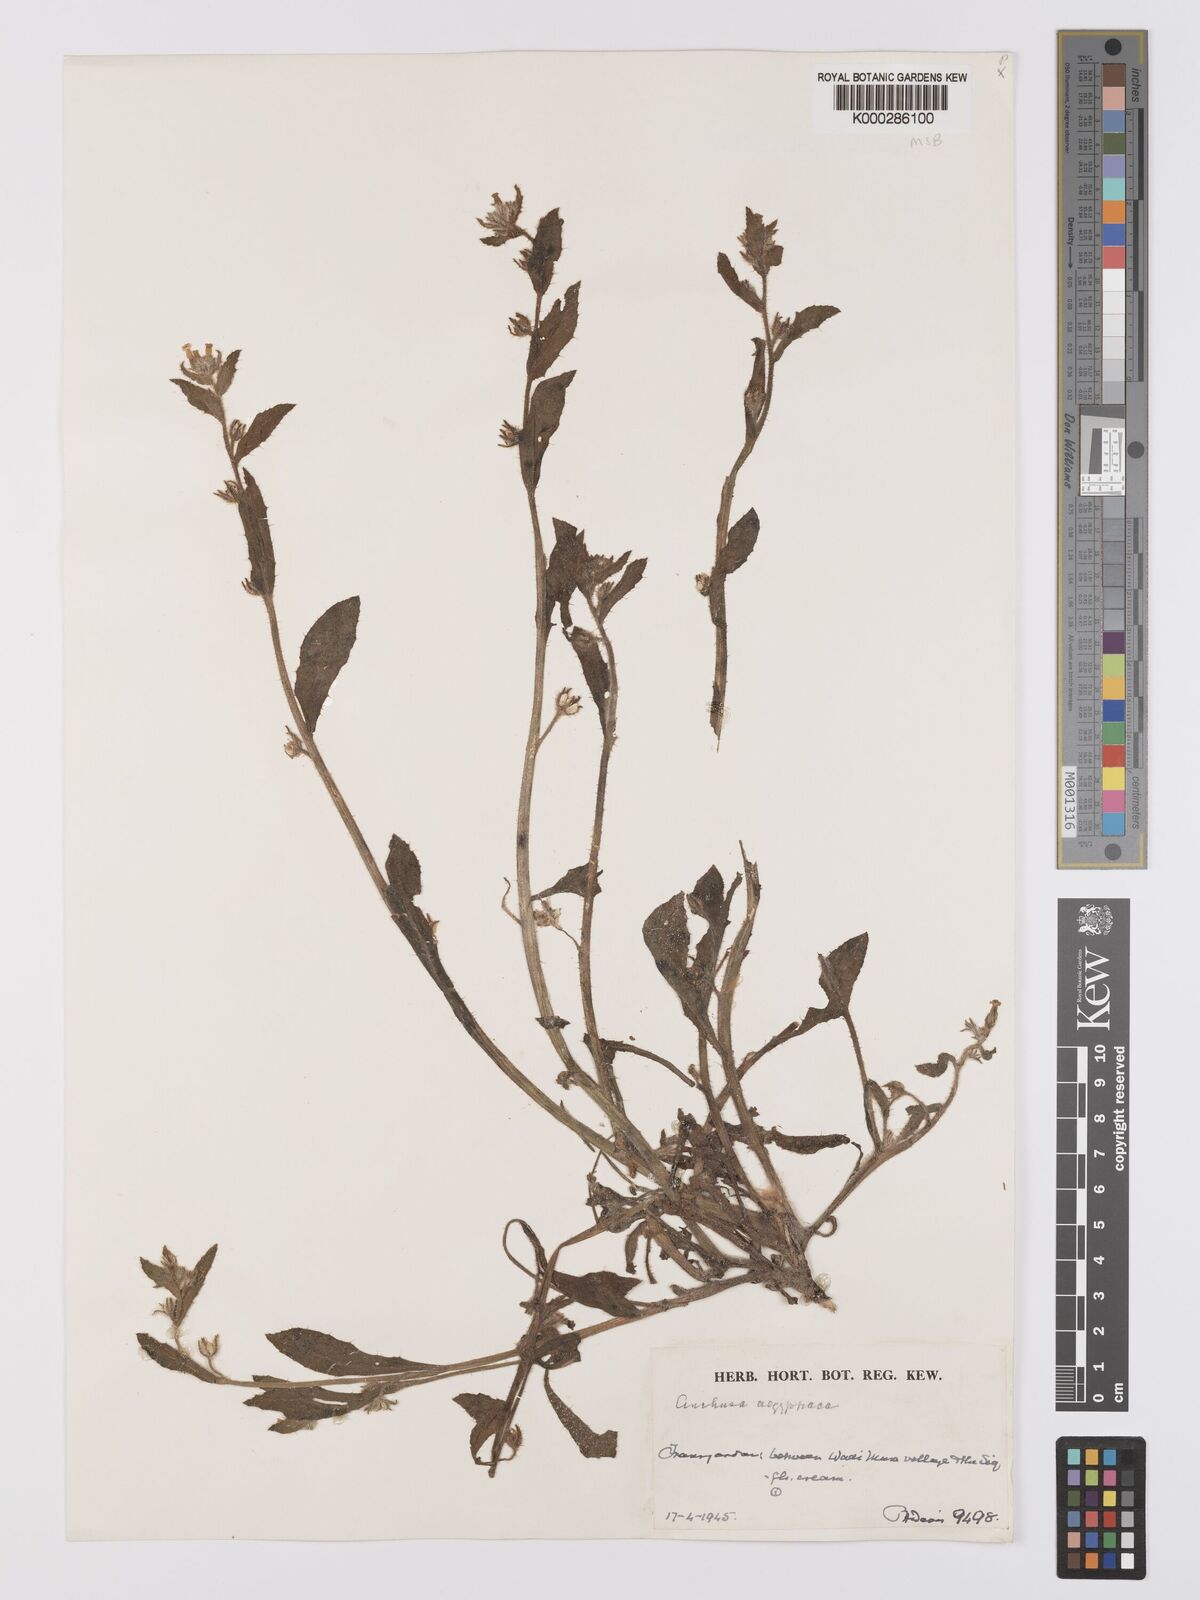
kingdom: Plantae
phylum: Tracheophyta
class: Magnoliopsida
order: Boraginales
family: Boraginaceae
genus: Lycopsis
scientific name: Lycopsis aegyptiaca
